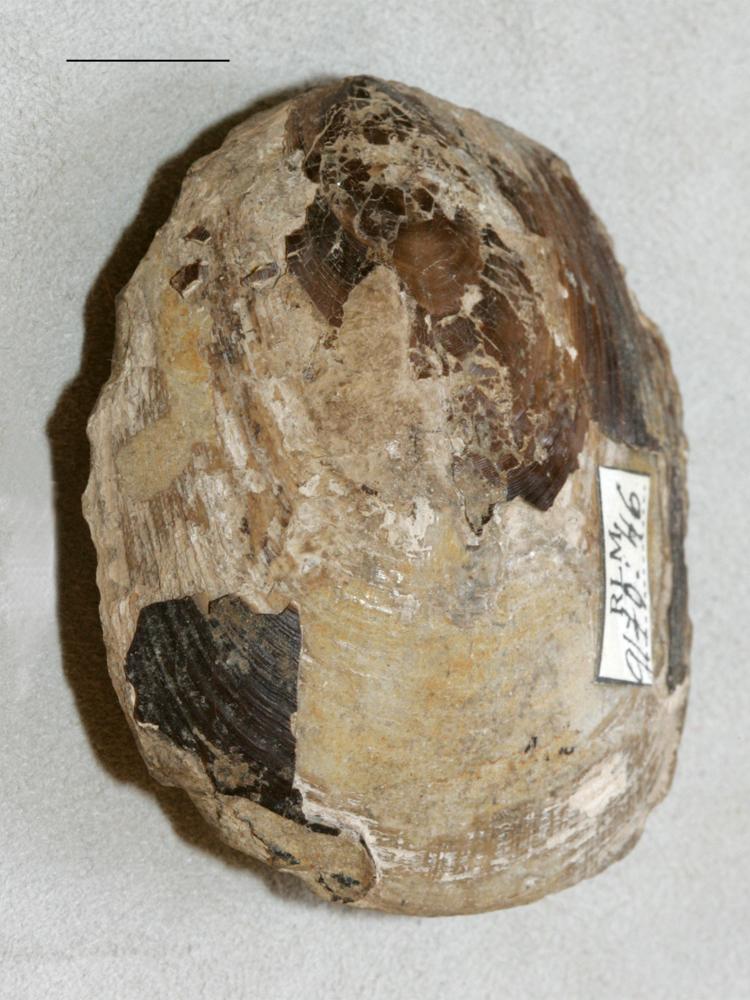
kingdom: Animalia
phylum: Brachiopoda
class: Lingulata
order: Lingulida
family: Pseudolingulidae
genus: Pseudolingula
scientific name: Pseudolingula Crania quadrata
